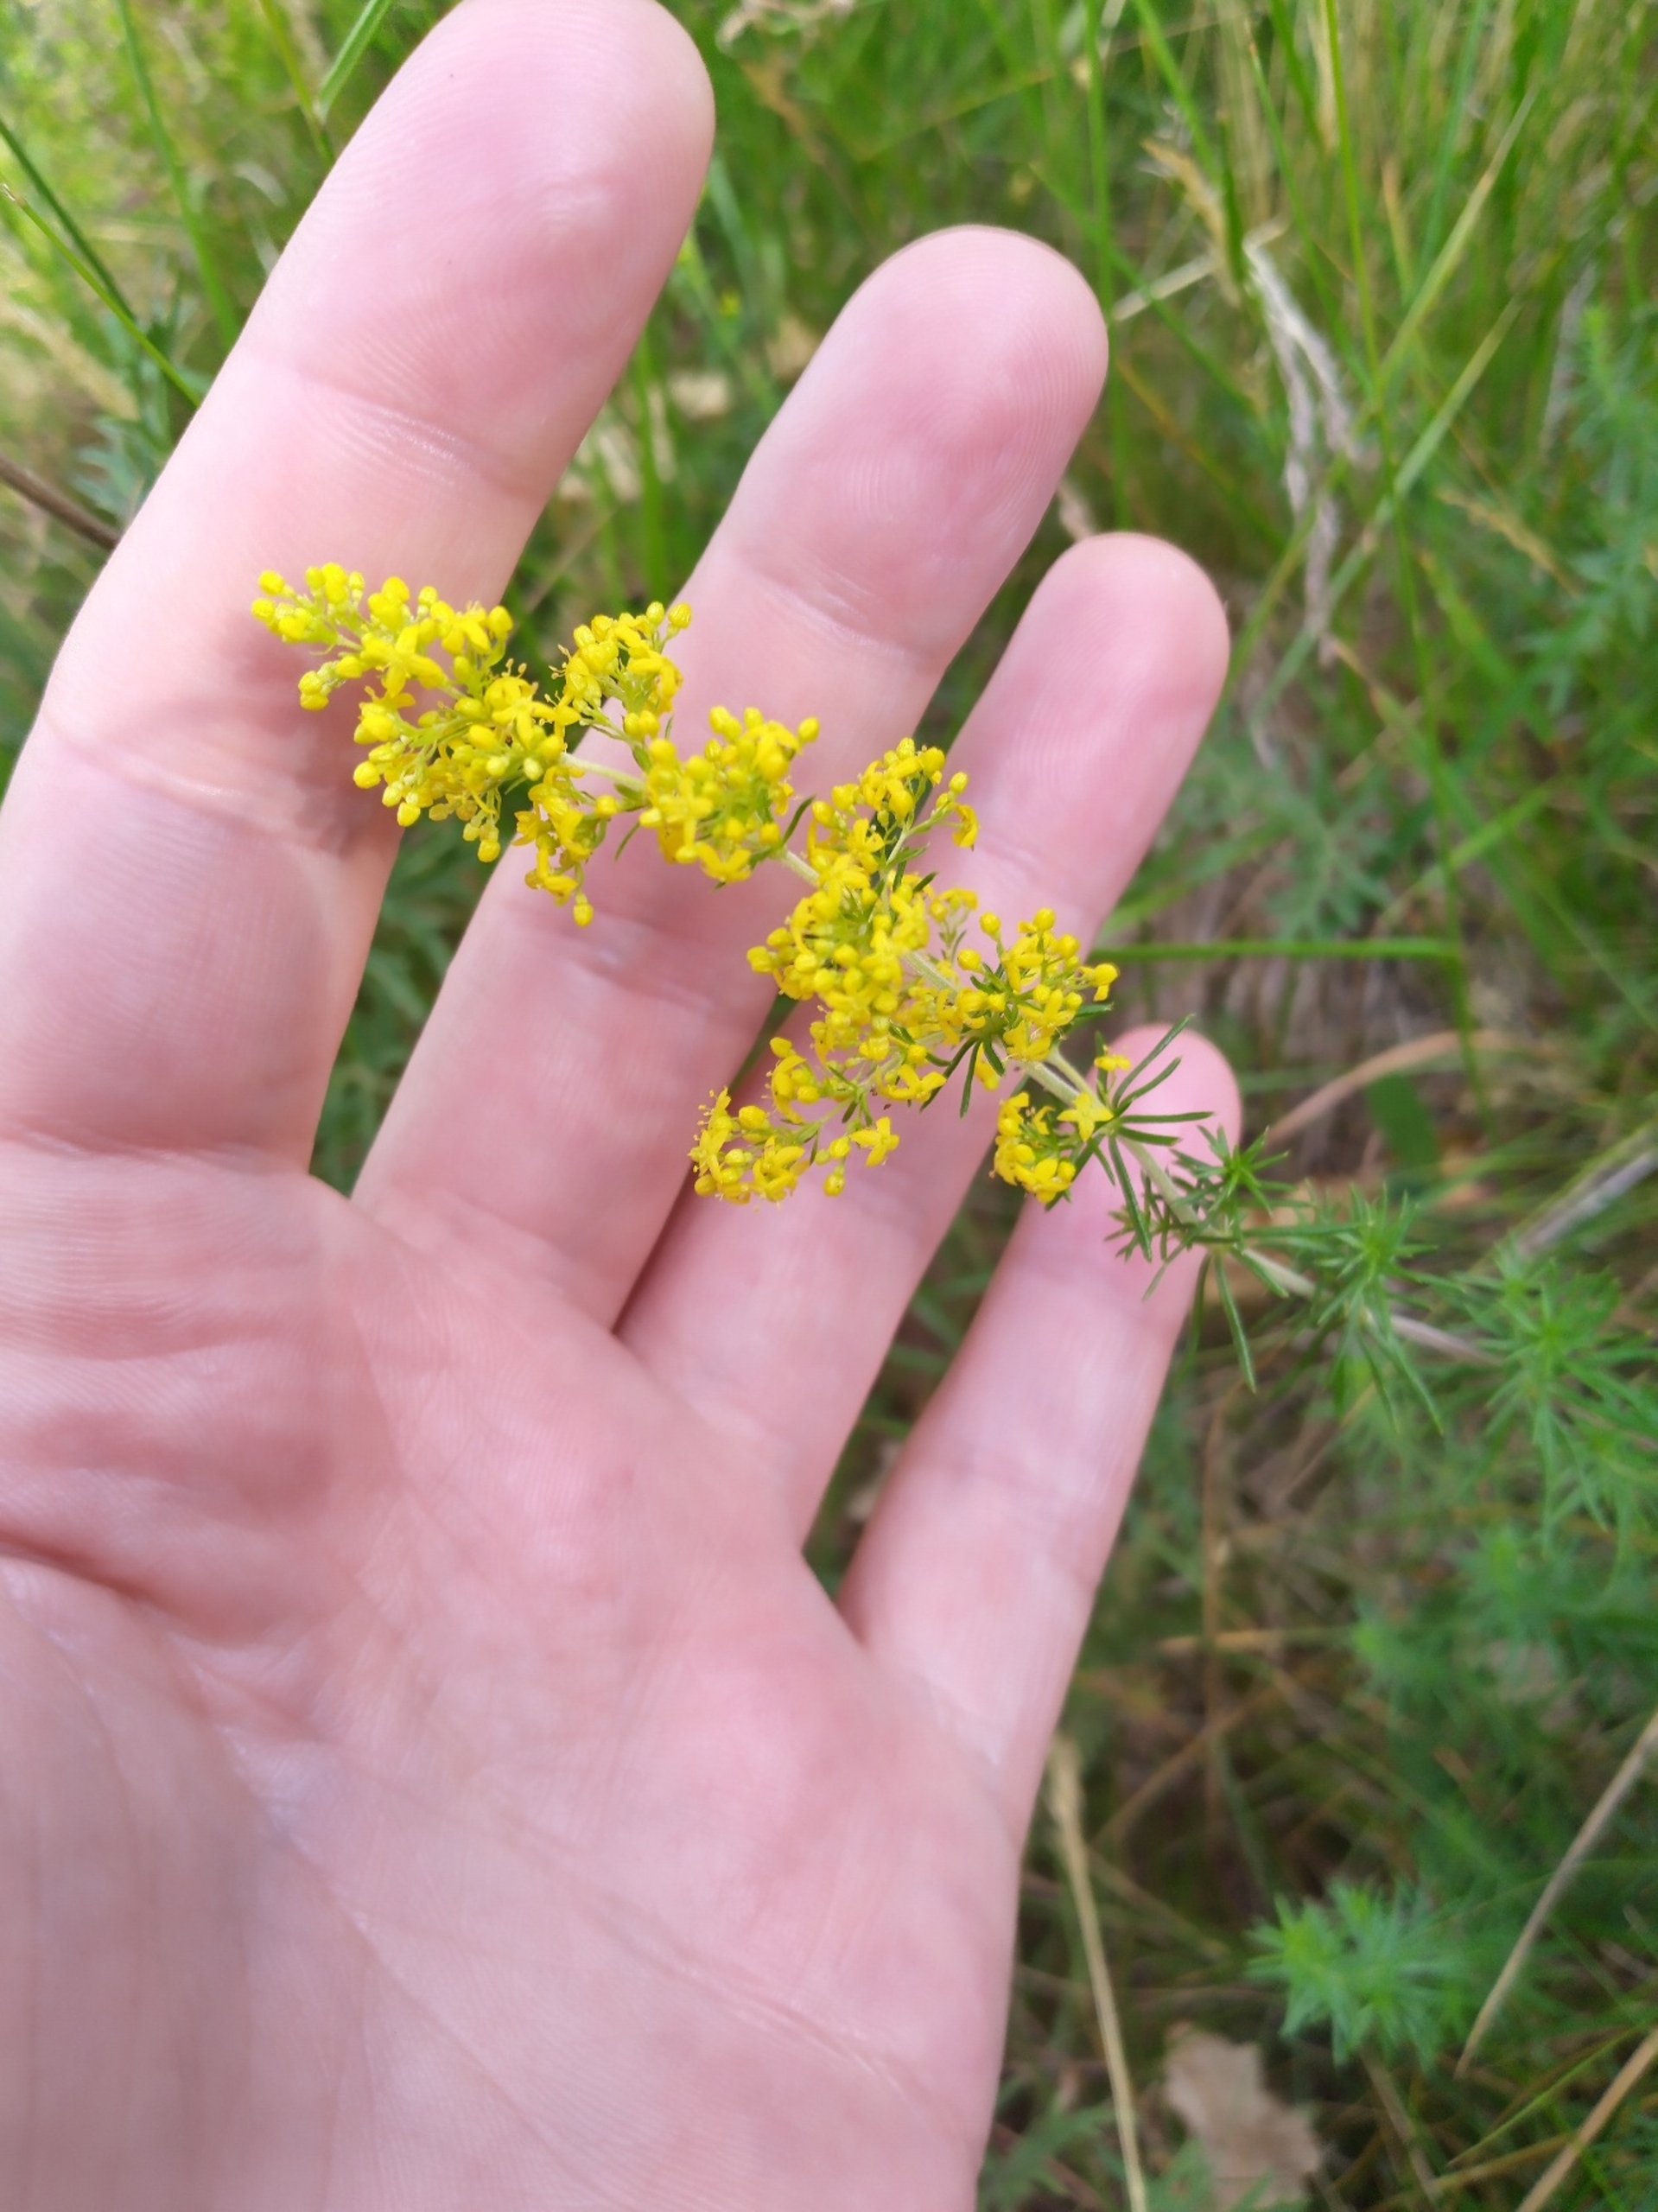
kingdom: Plantae
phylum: Tracheophyta
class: Magnoliopsida
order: Gentianales
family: Rubiaceae
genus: Galium
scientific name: Galium verum
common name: Gul snerre
